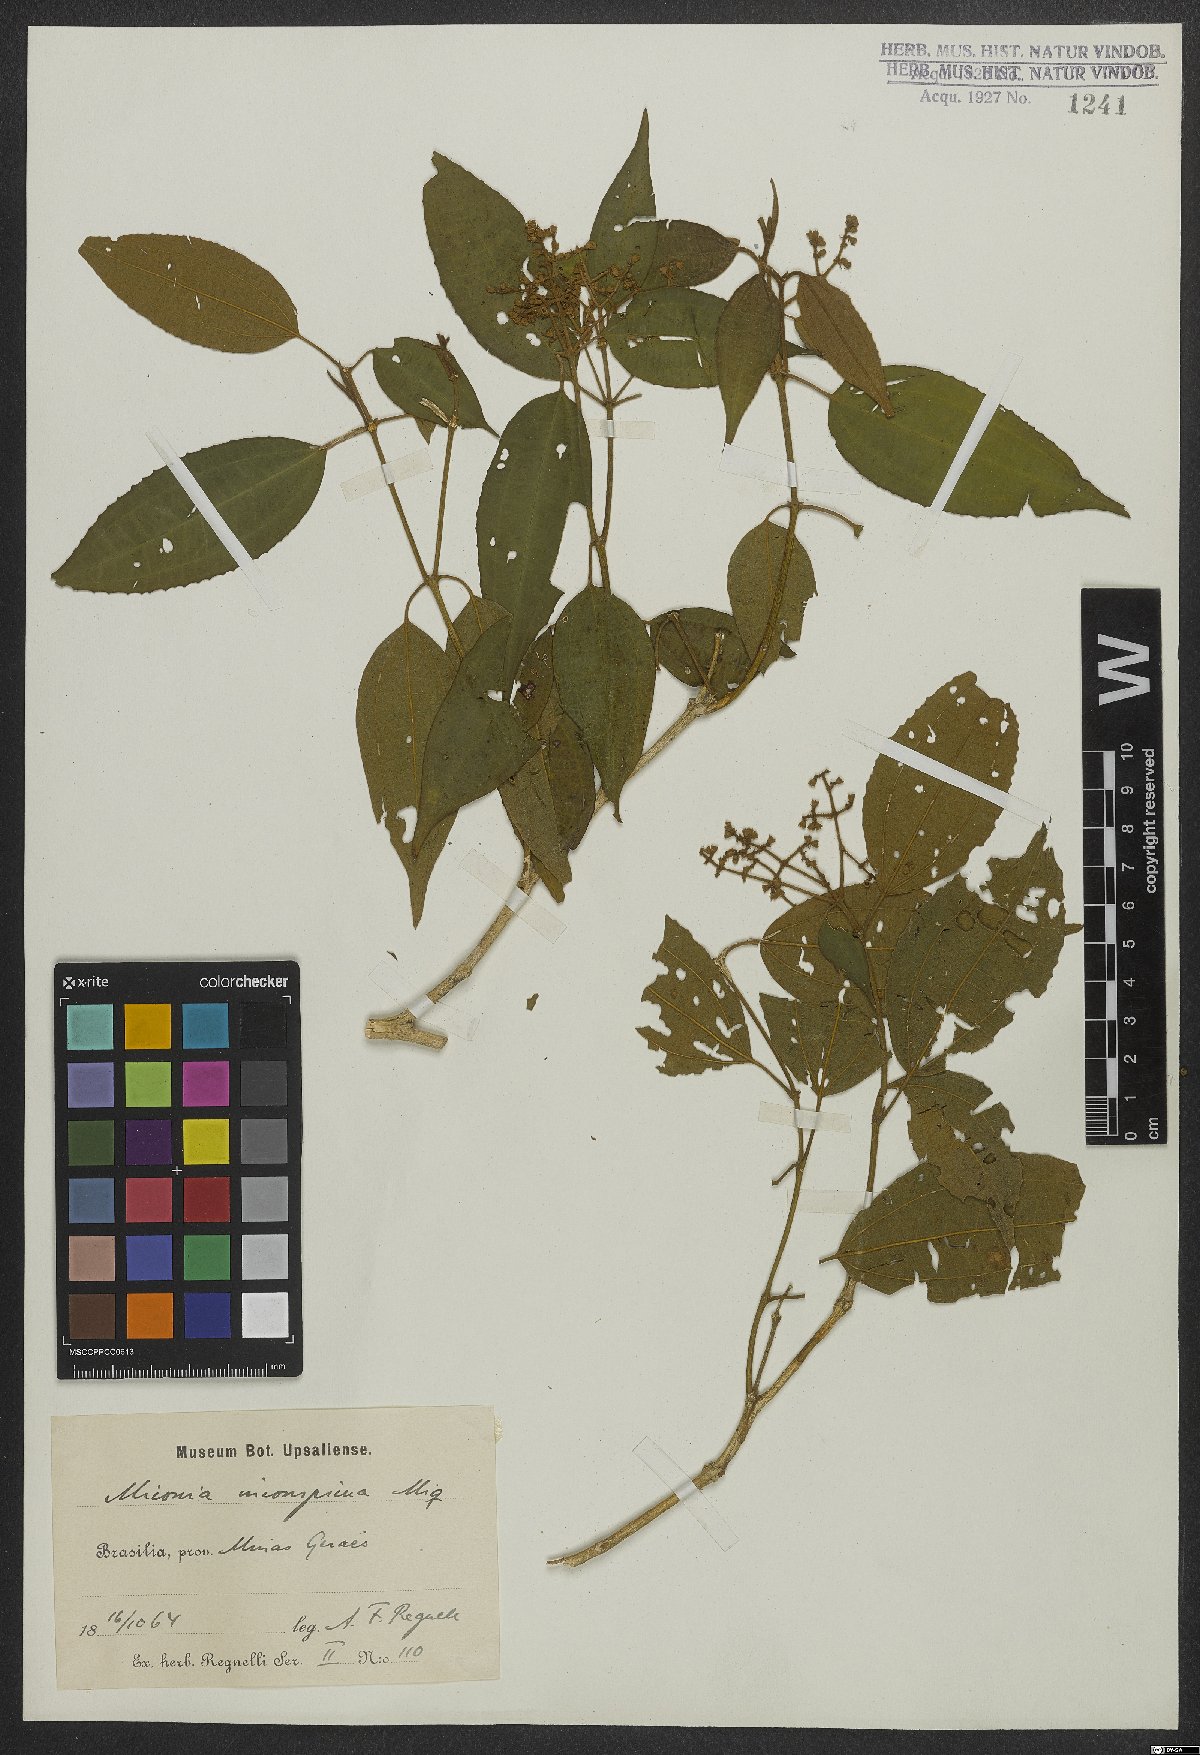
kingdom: Plantae
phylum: Tracheophyta
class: Magnoliopsida
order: Myrtales
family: Melastomataceae
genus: Miconia
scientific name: Miconia inconspicua
